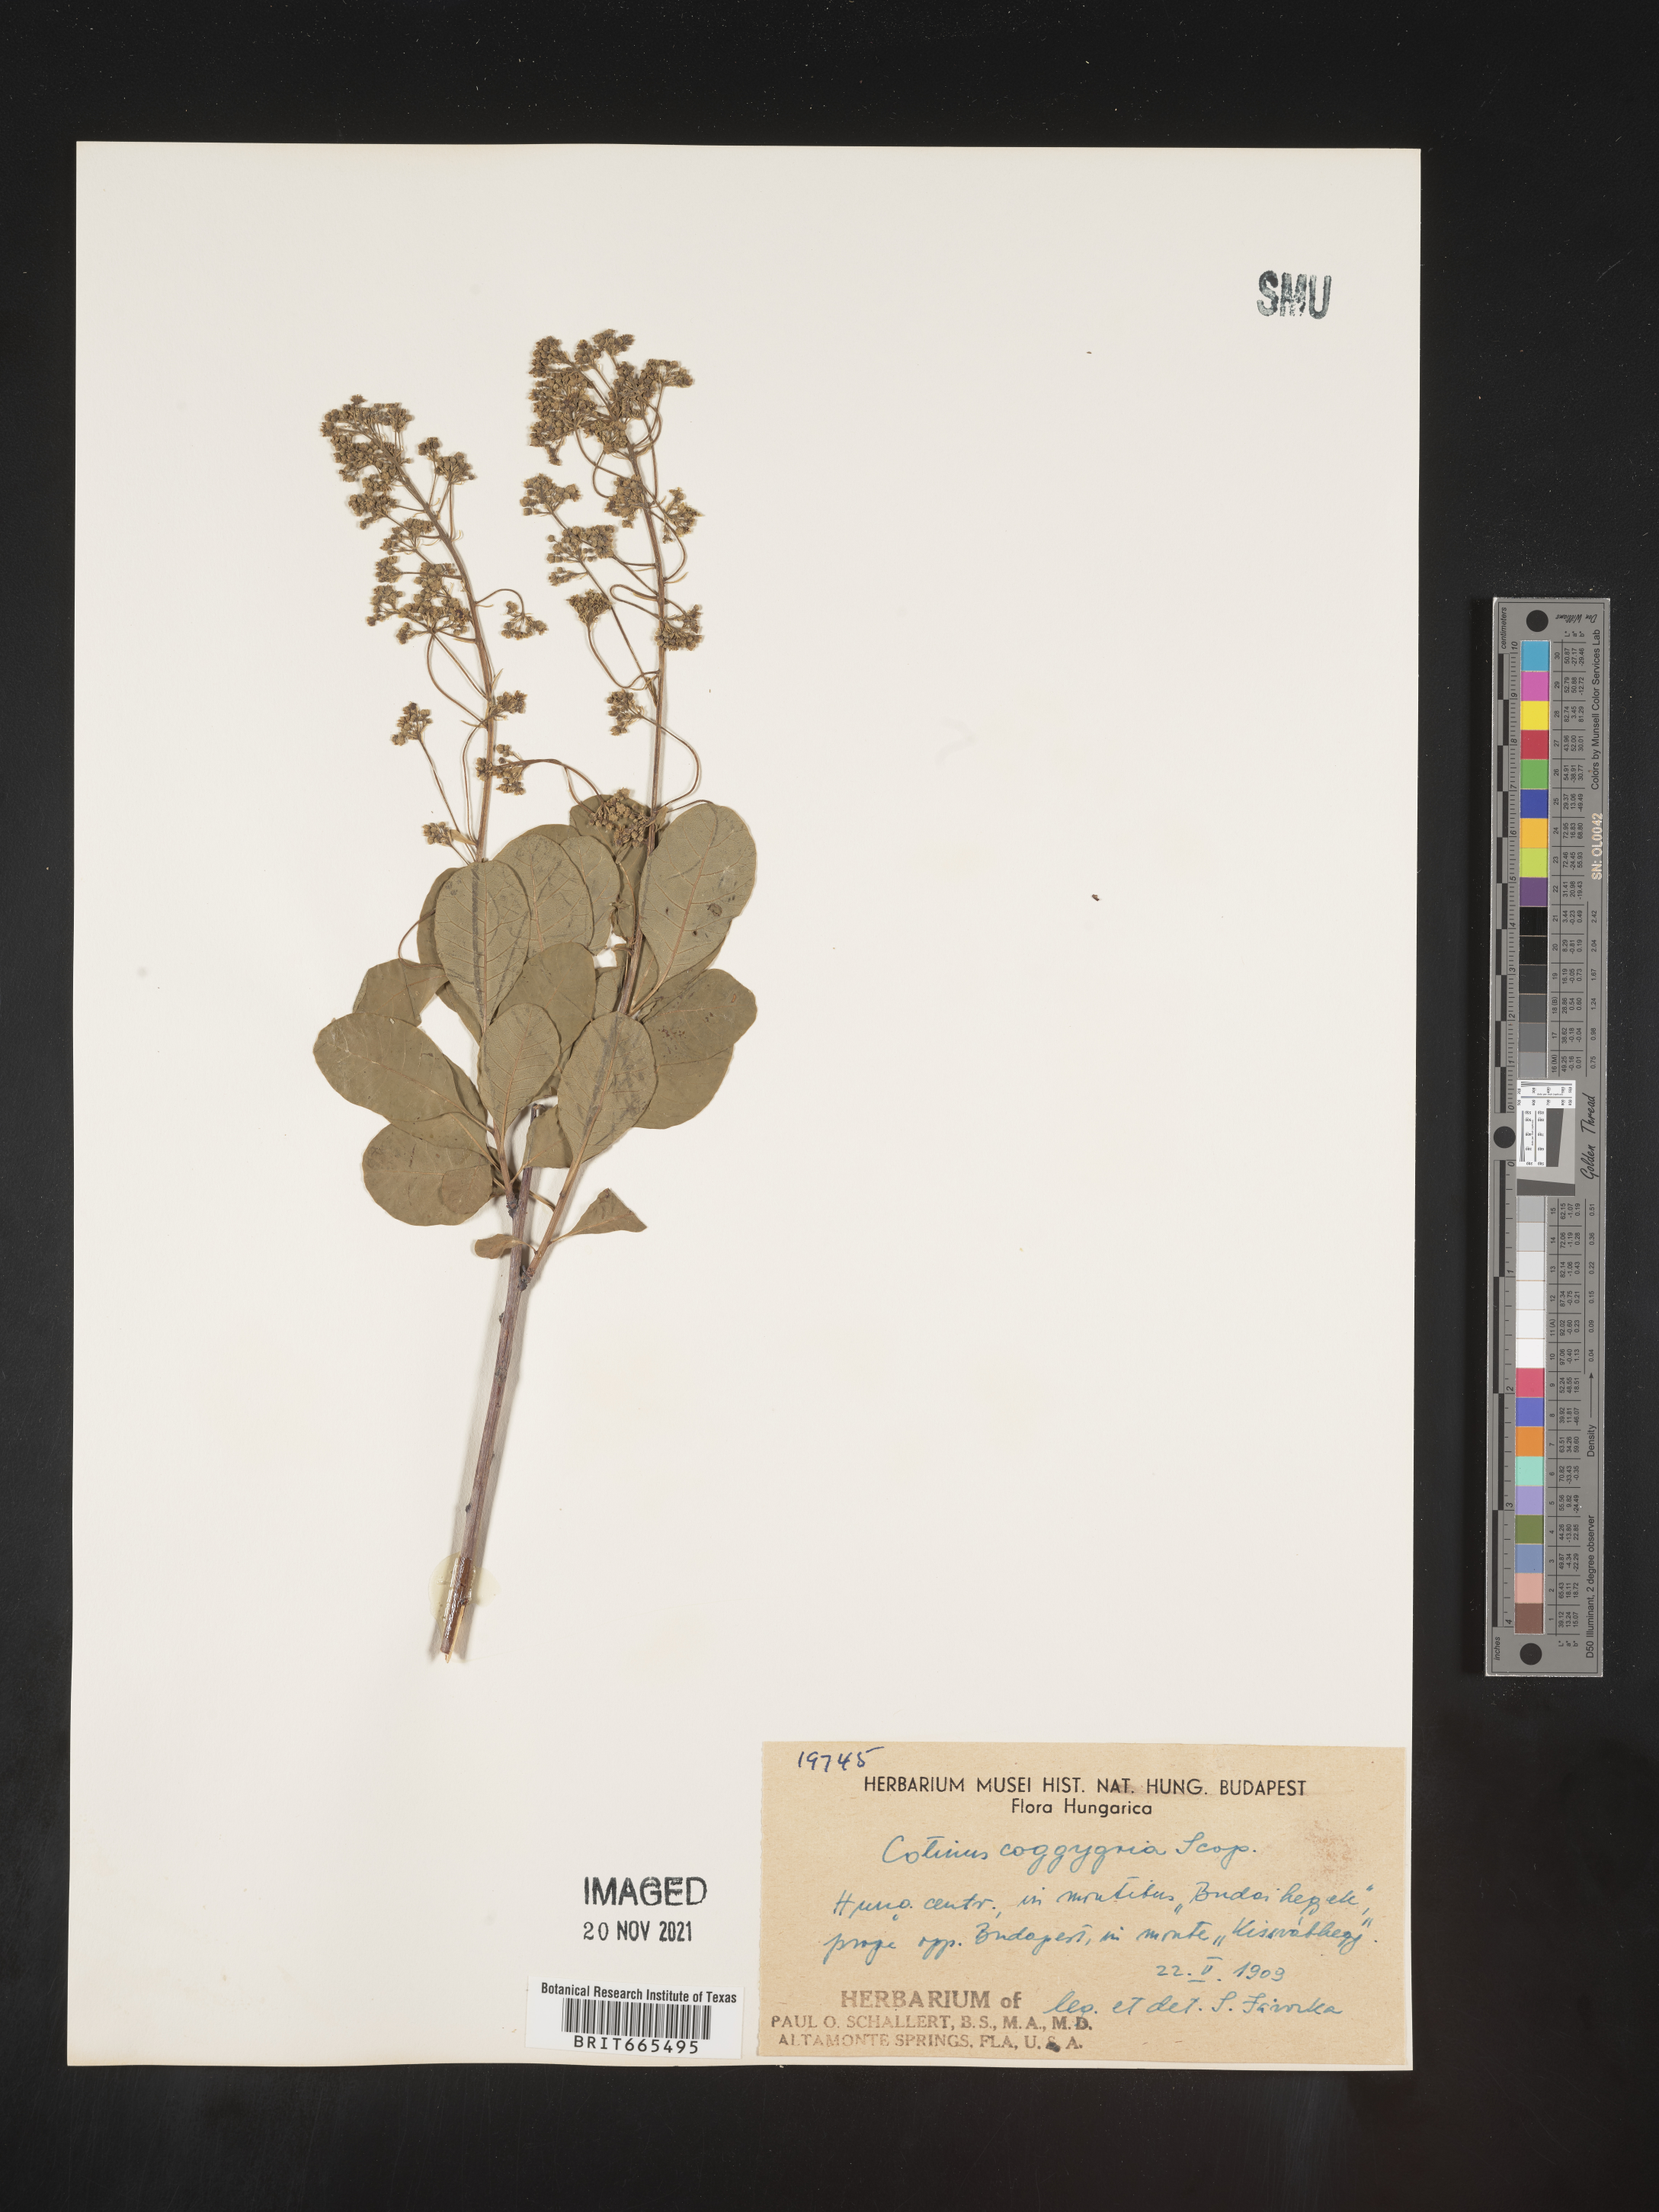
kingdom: Plantae
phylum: Tracheophyta
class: Magnoliopsida
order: Sapindales
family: Anacardiaceae
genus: Cotinus
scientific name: Cotinus
